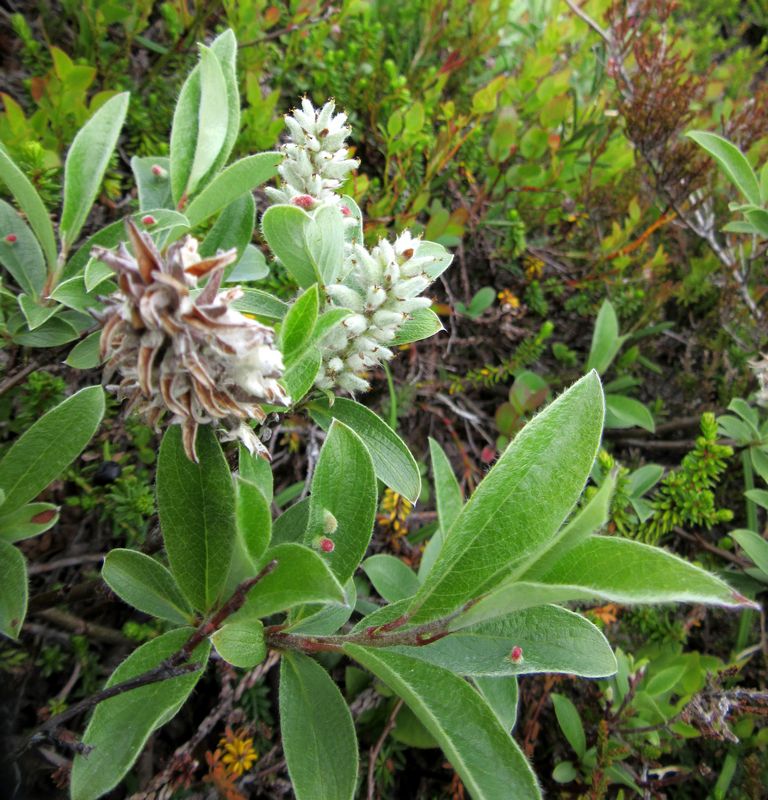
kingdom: Plantae
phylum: Tracheophyta
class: Magnoliopsida
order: Malpighiales
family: Salicaceae
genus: Salix
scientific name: Salix
